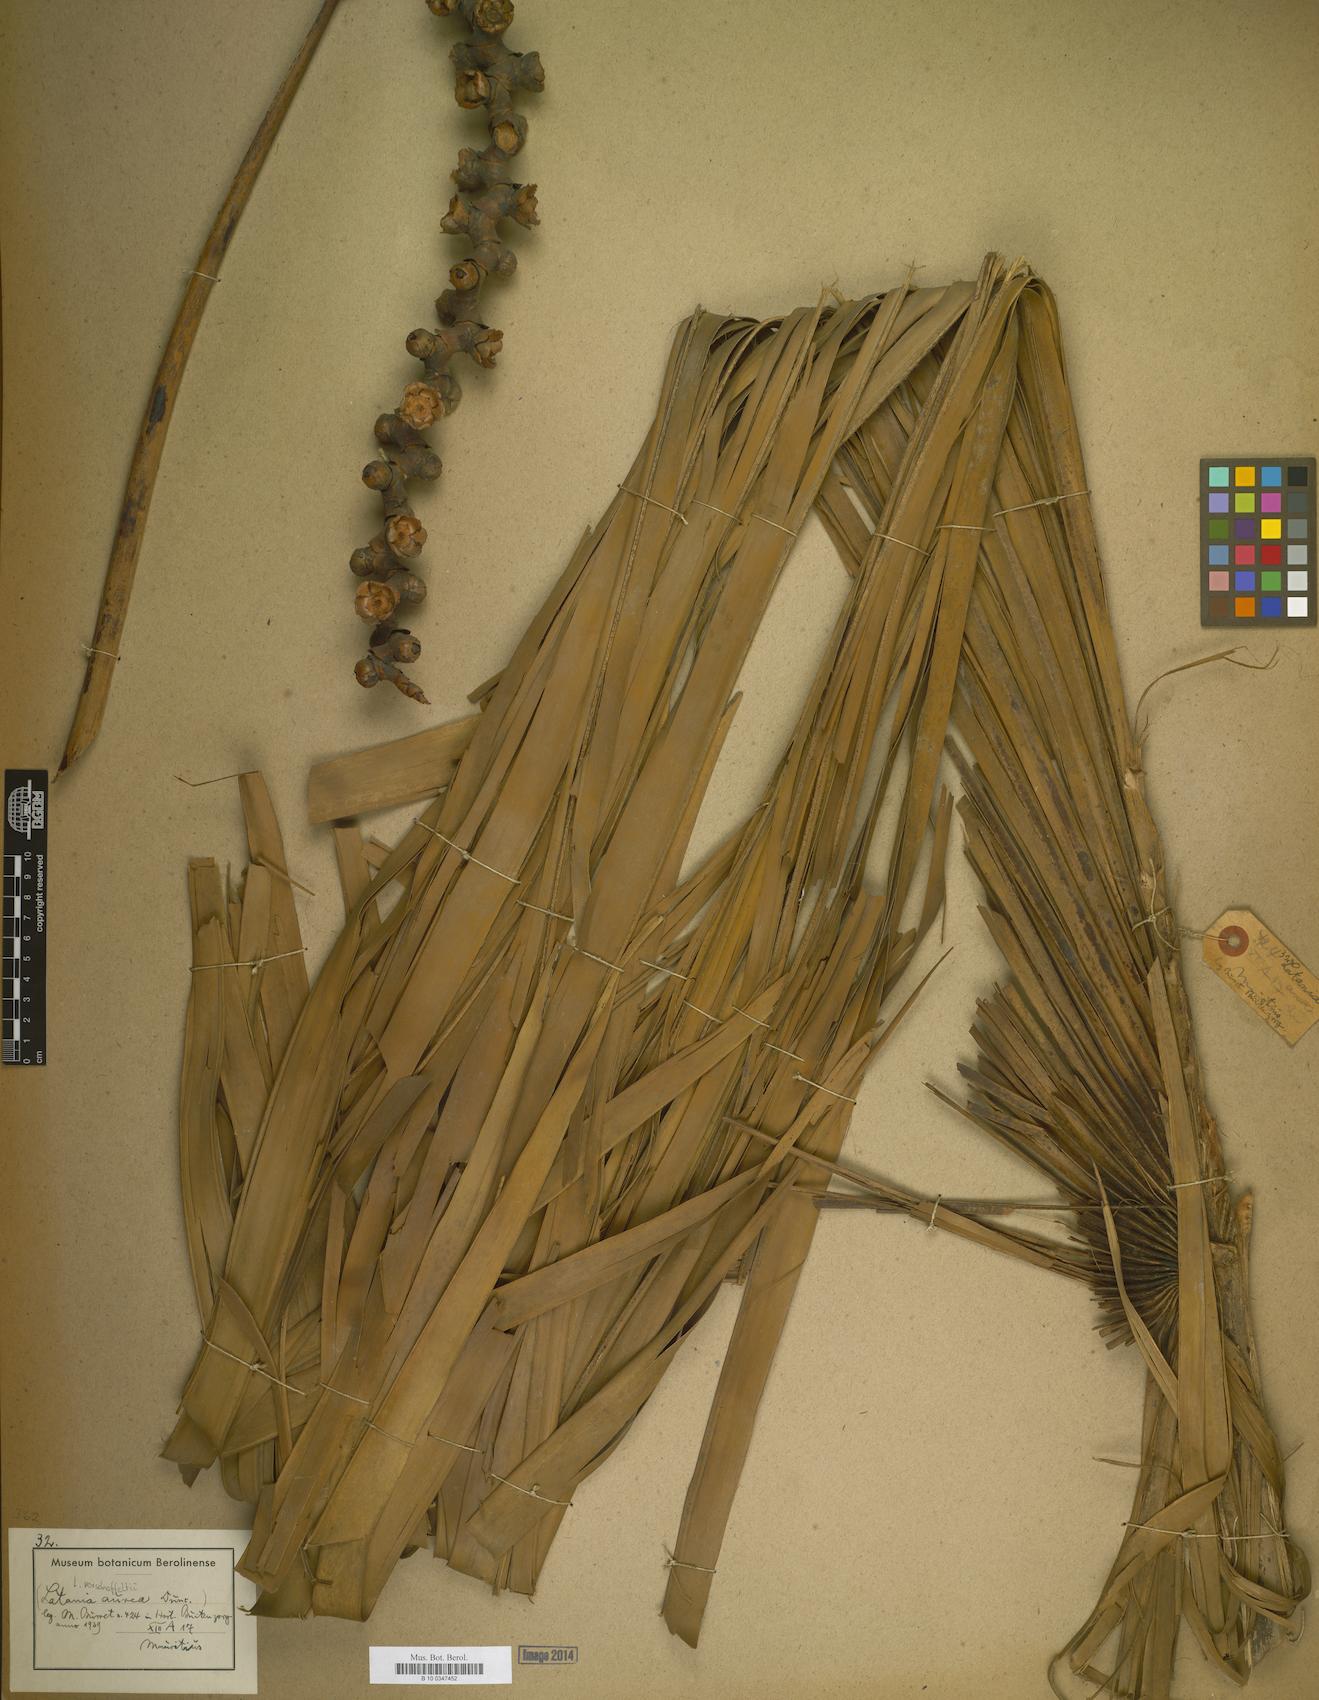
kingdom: Plantae
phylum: Tracheophyta
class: Liliopsida
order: Arecales
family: Arecaceae
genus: Latania
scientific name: Latania verschaffeltii
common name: Yellow latan
